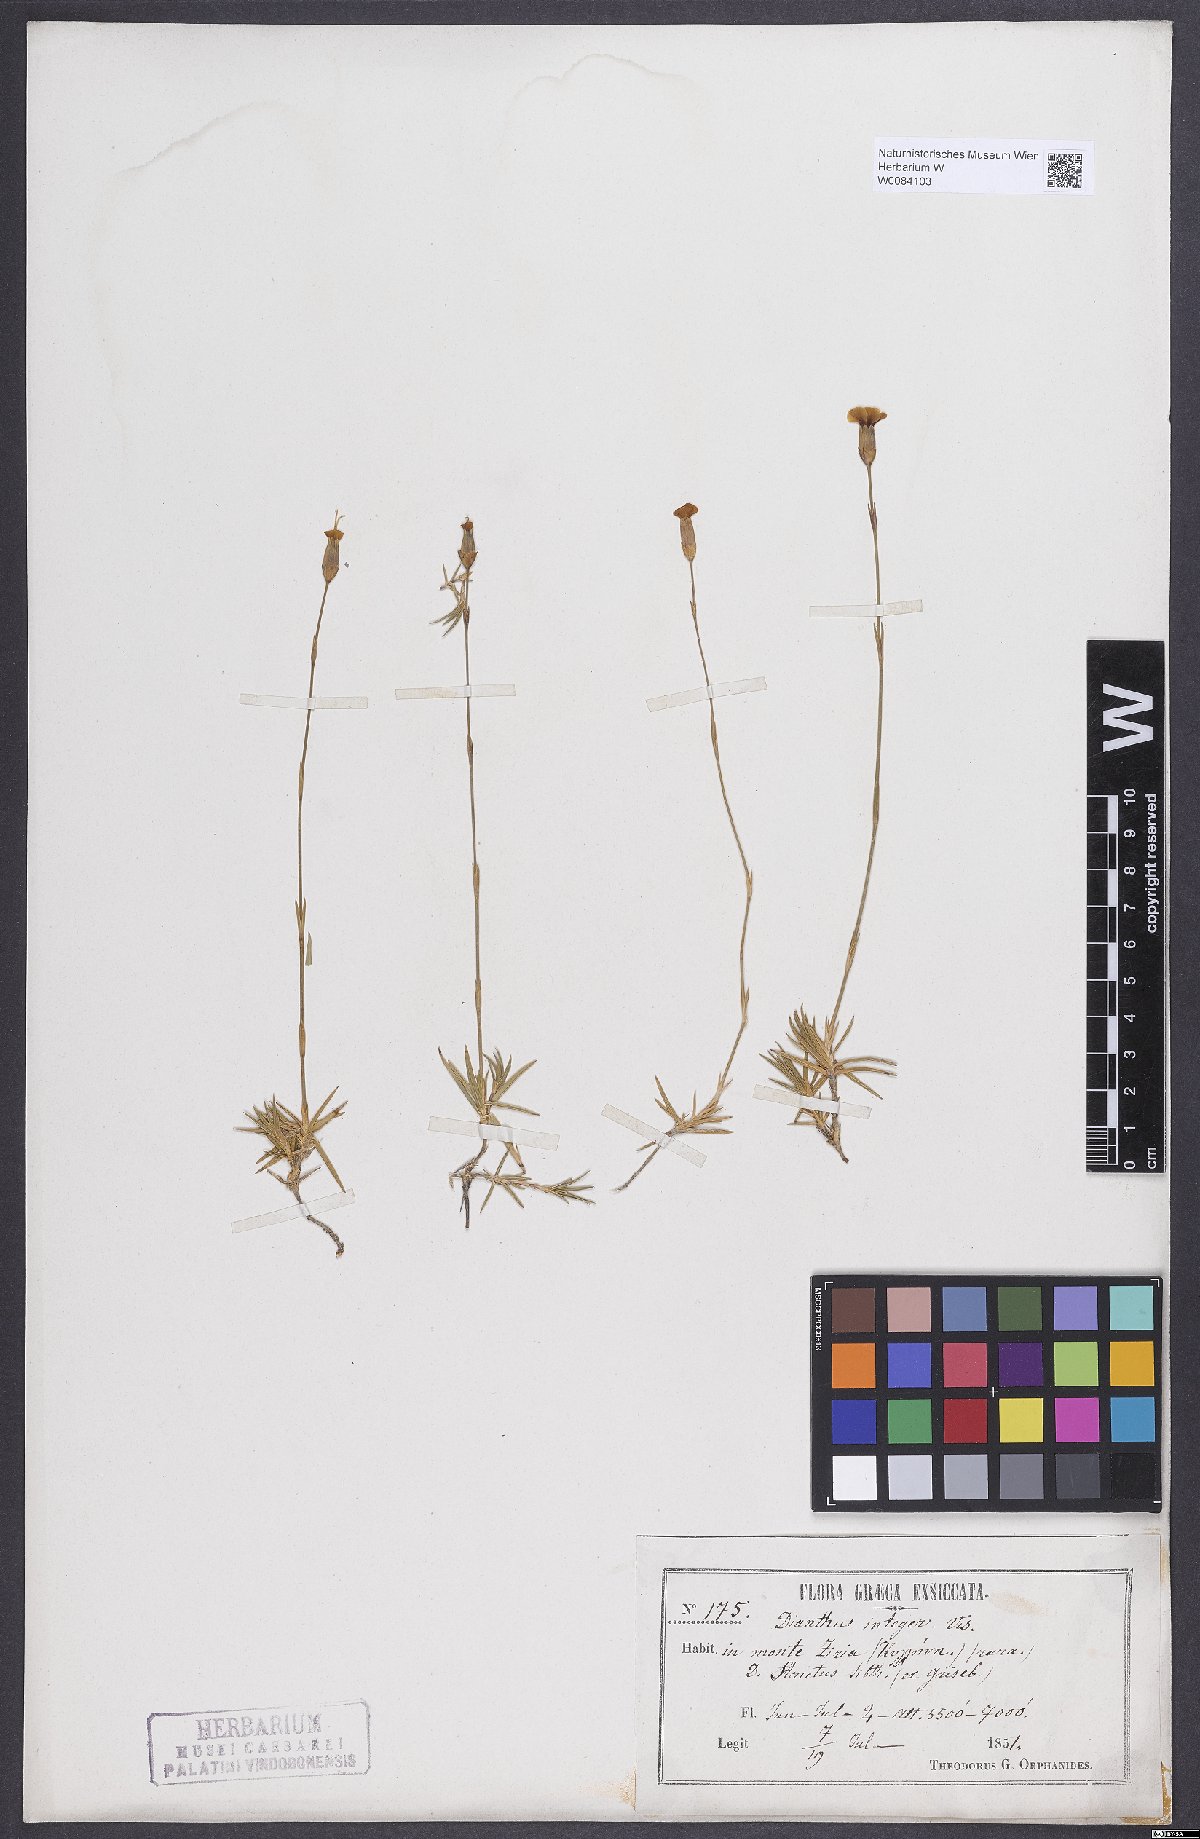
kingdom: Plantae
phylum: Tracheophyta
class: Magnoliopsida
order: Caryophyllales
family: Caryophyllaceae
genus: Dianthus
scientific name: Dianthus integer
